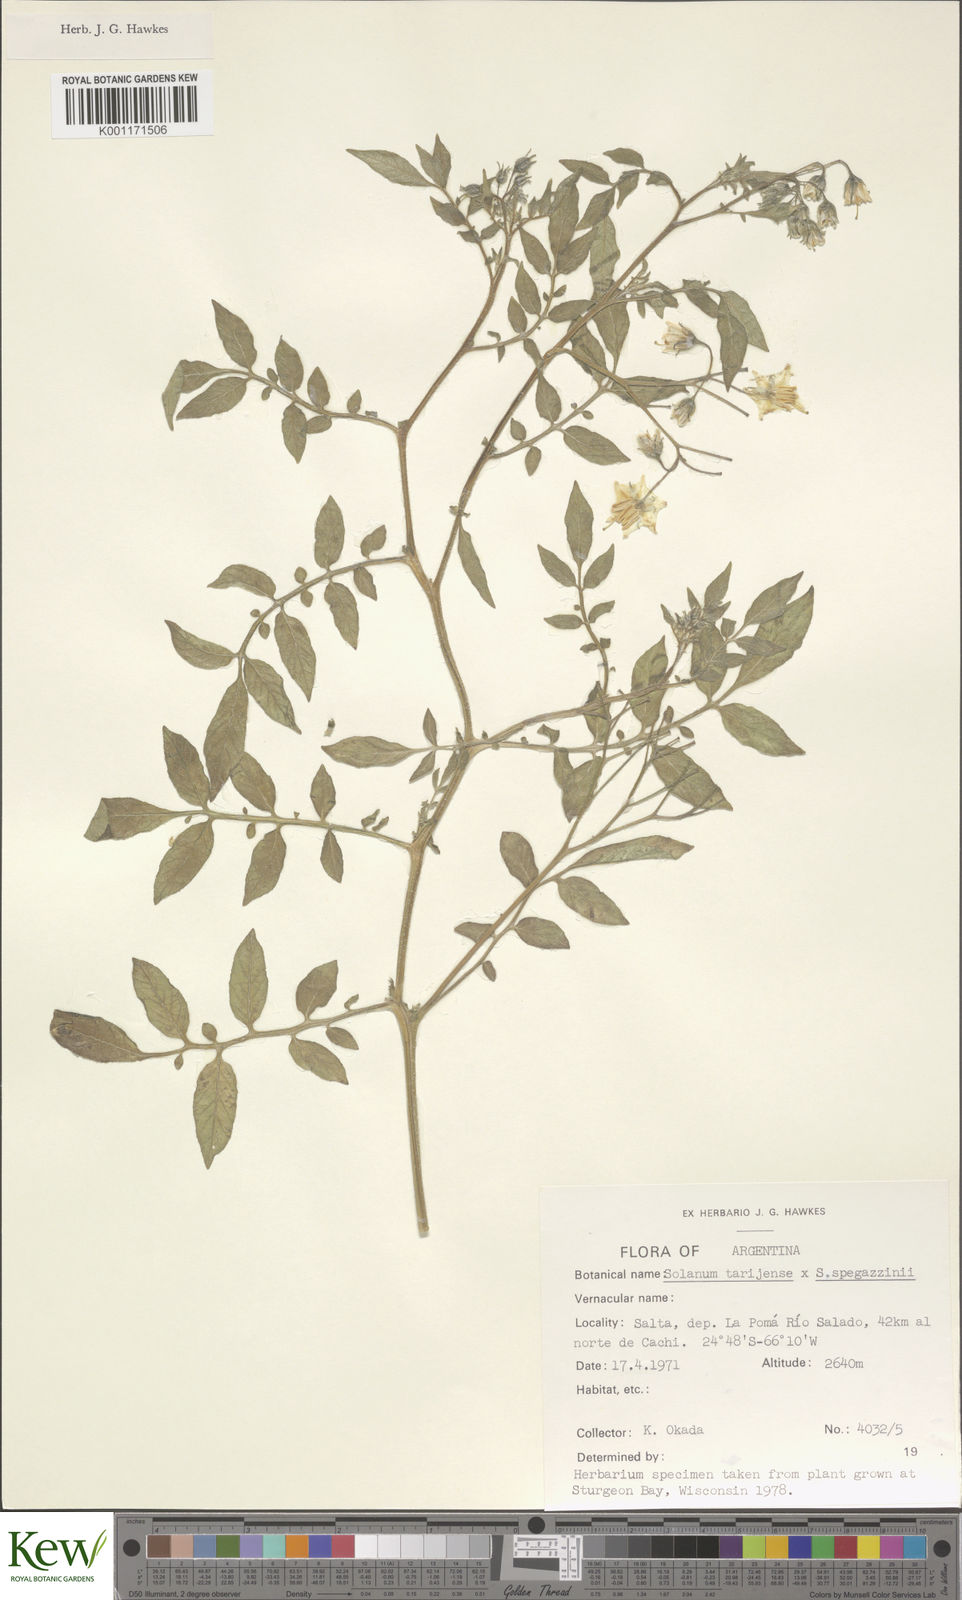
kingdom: Plantae
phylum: Tracheophyta
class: Magnoliopsida
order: Solanales
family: Solanaceae
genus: Solanum
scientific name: Solanum tarijense
